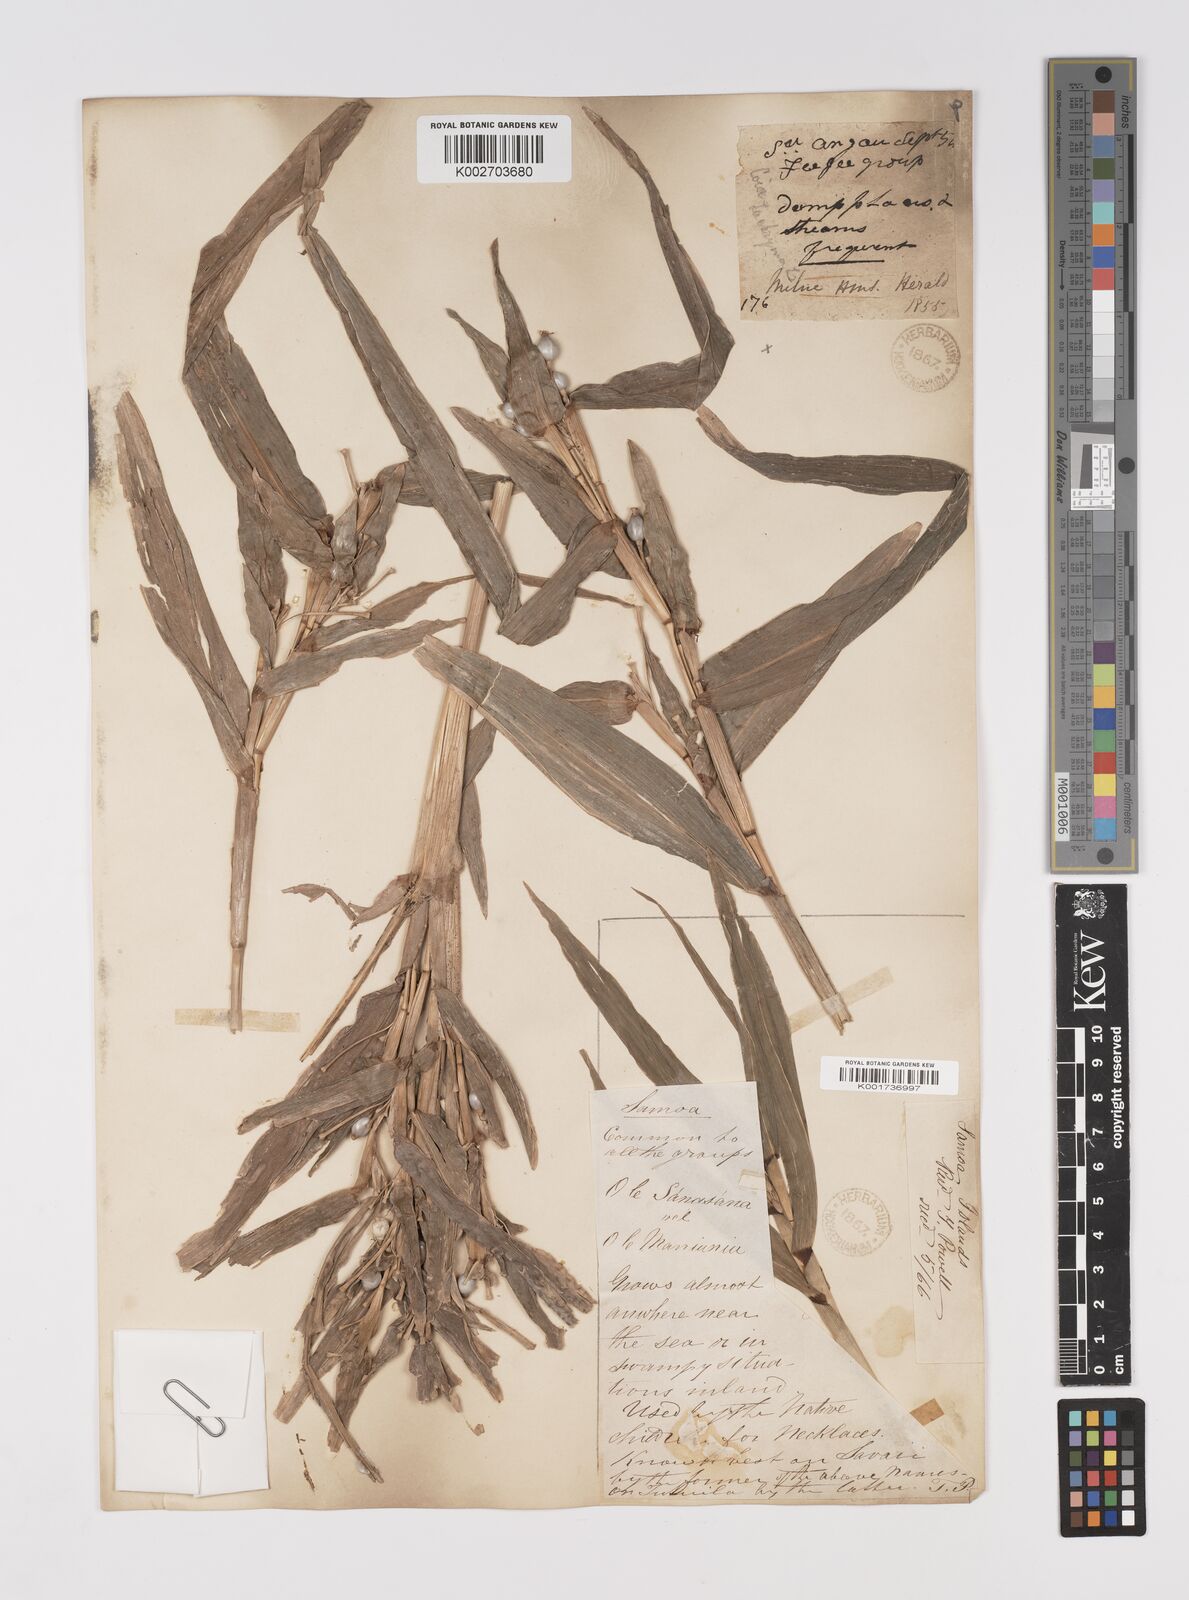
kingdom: Plantae
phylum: Tracheophyta
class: Liliopsida
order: Poales
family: Poaceae
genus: Coix
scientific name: Coix lacryma-jobi
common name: Job's tears
